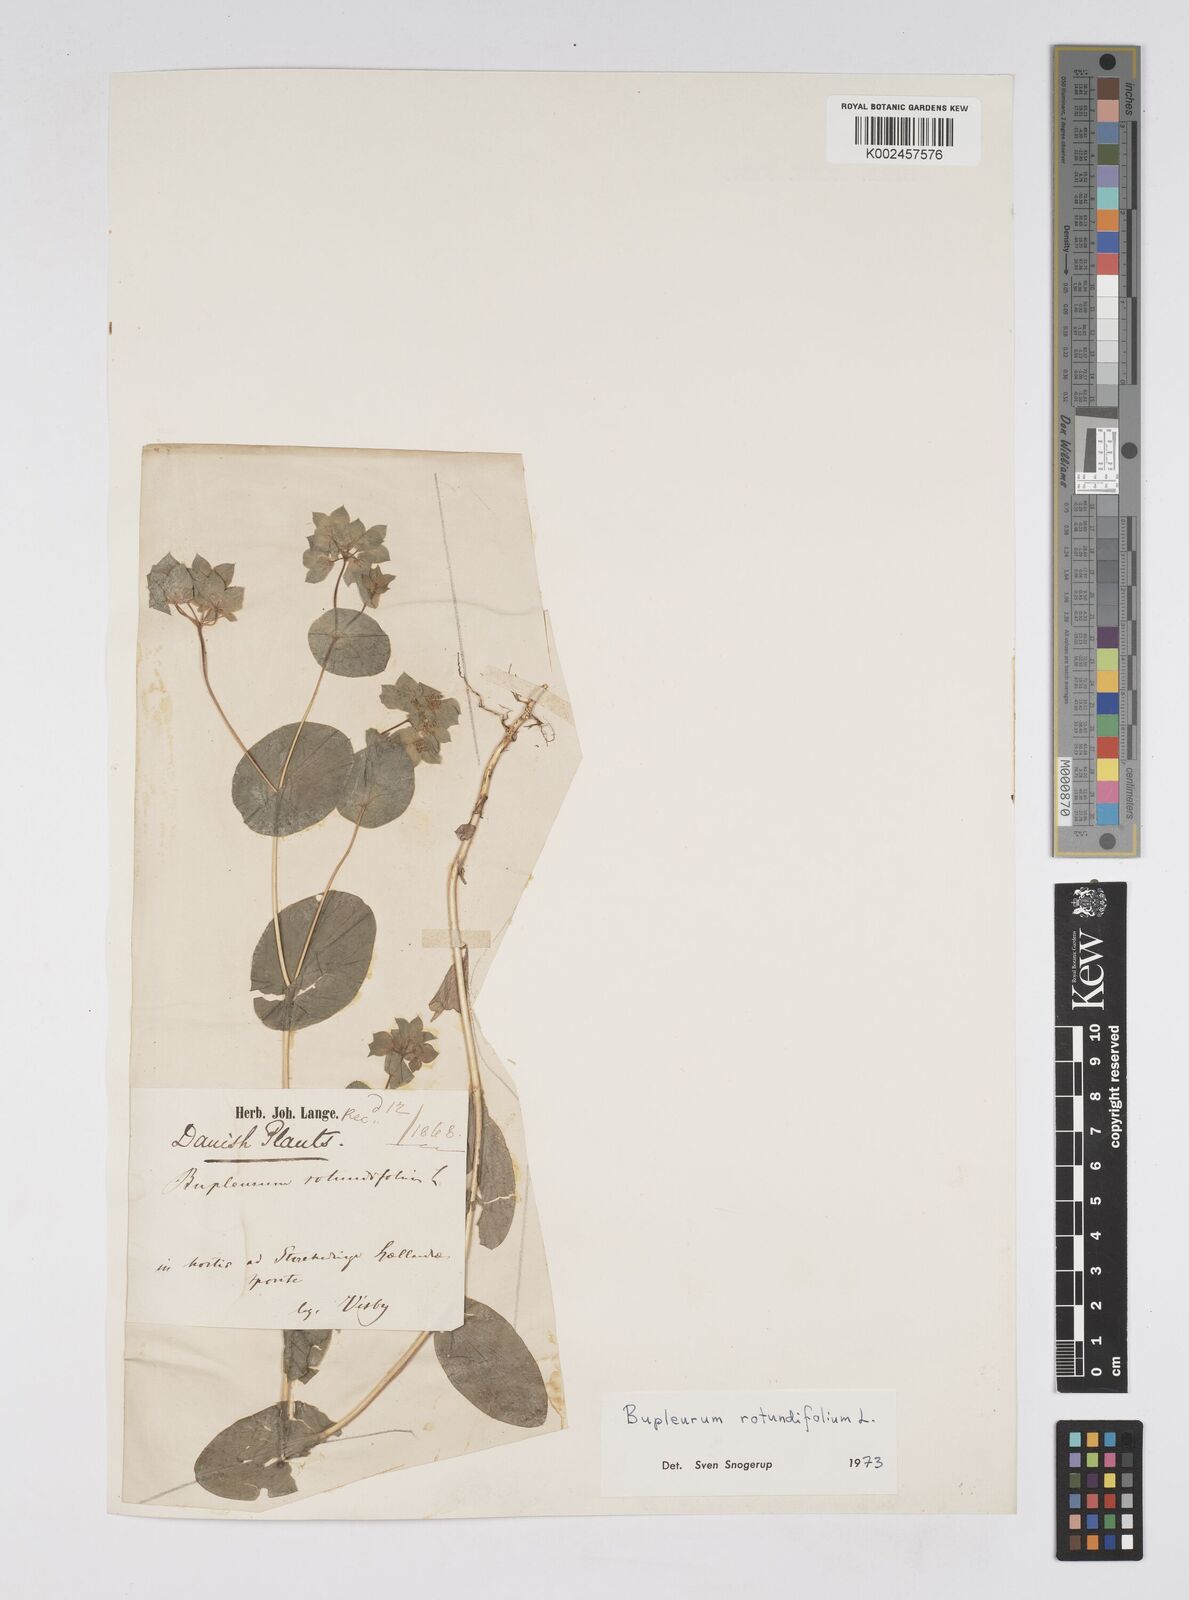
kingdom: Plantae
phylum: Tracheophyta
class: Magnoliopsida
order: Apiales
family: Apiaceae
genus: Bupleurum
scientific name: Bupleurum rotundifolium
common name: Thorow-wax
